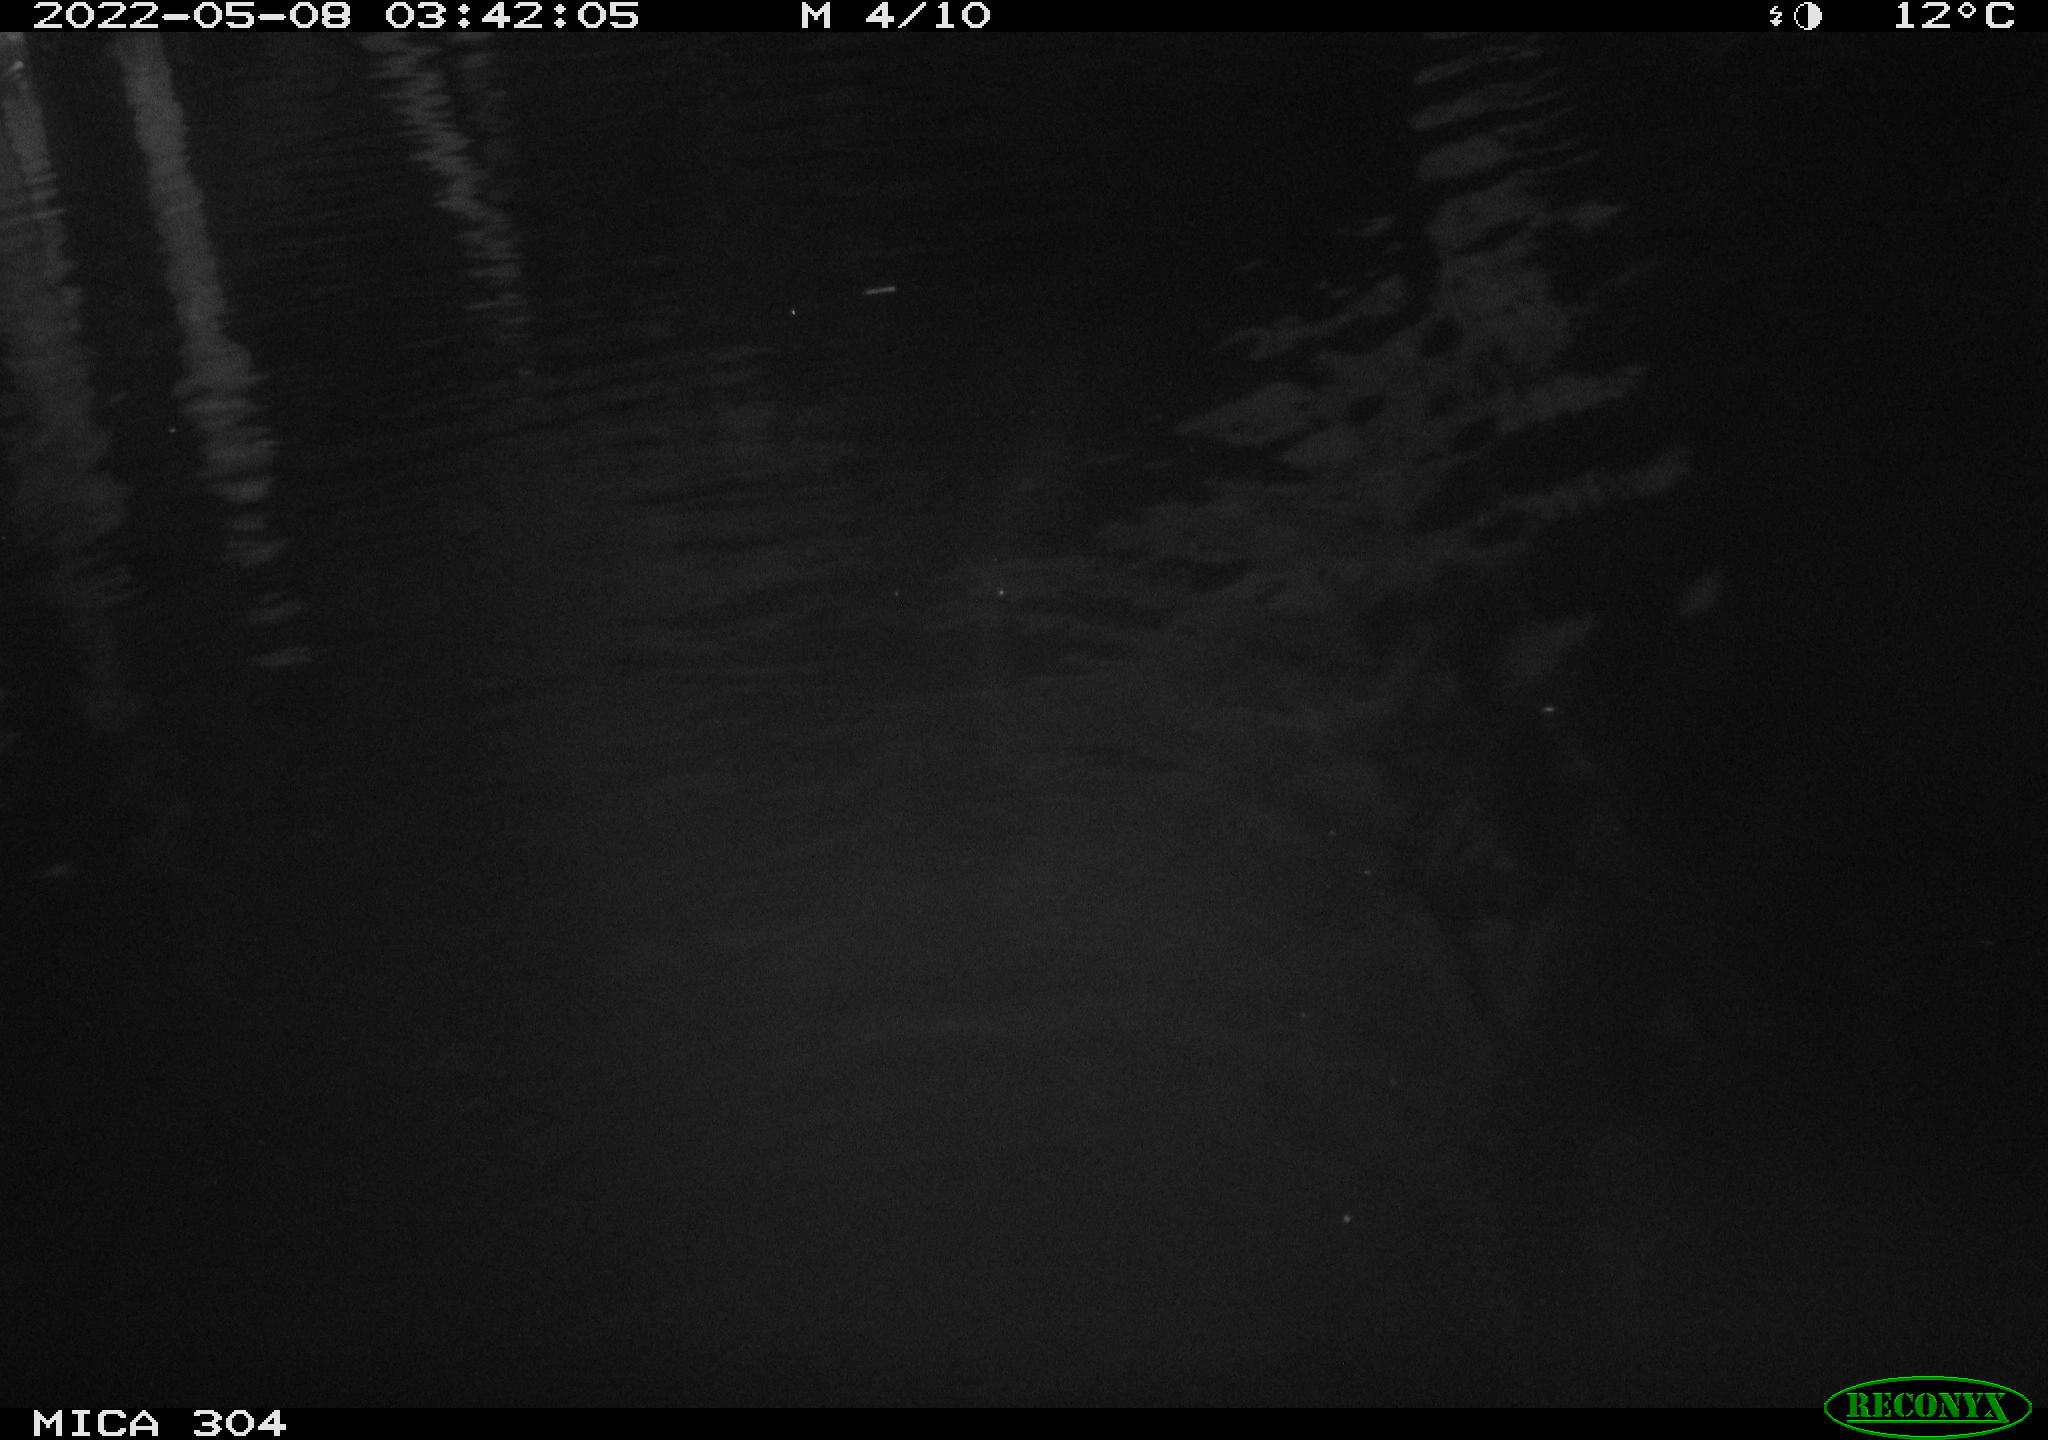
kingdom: Animalia
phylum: Chordata
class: Mammalia
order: Rodentia
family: Cricetidae
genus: Ondatra
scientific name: Ondatra zibethicus
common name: Muskrat
